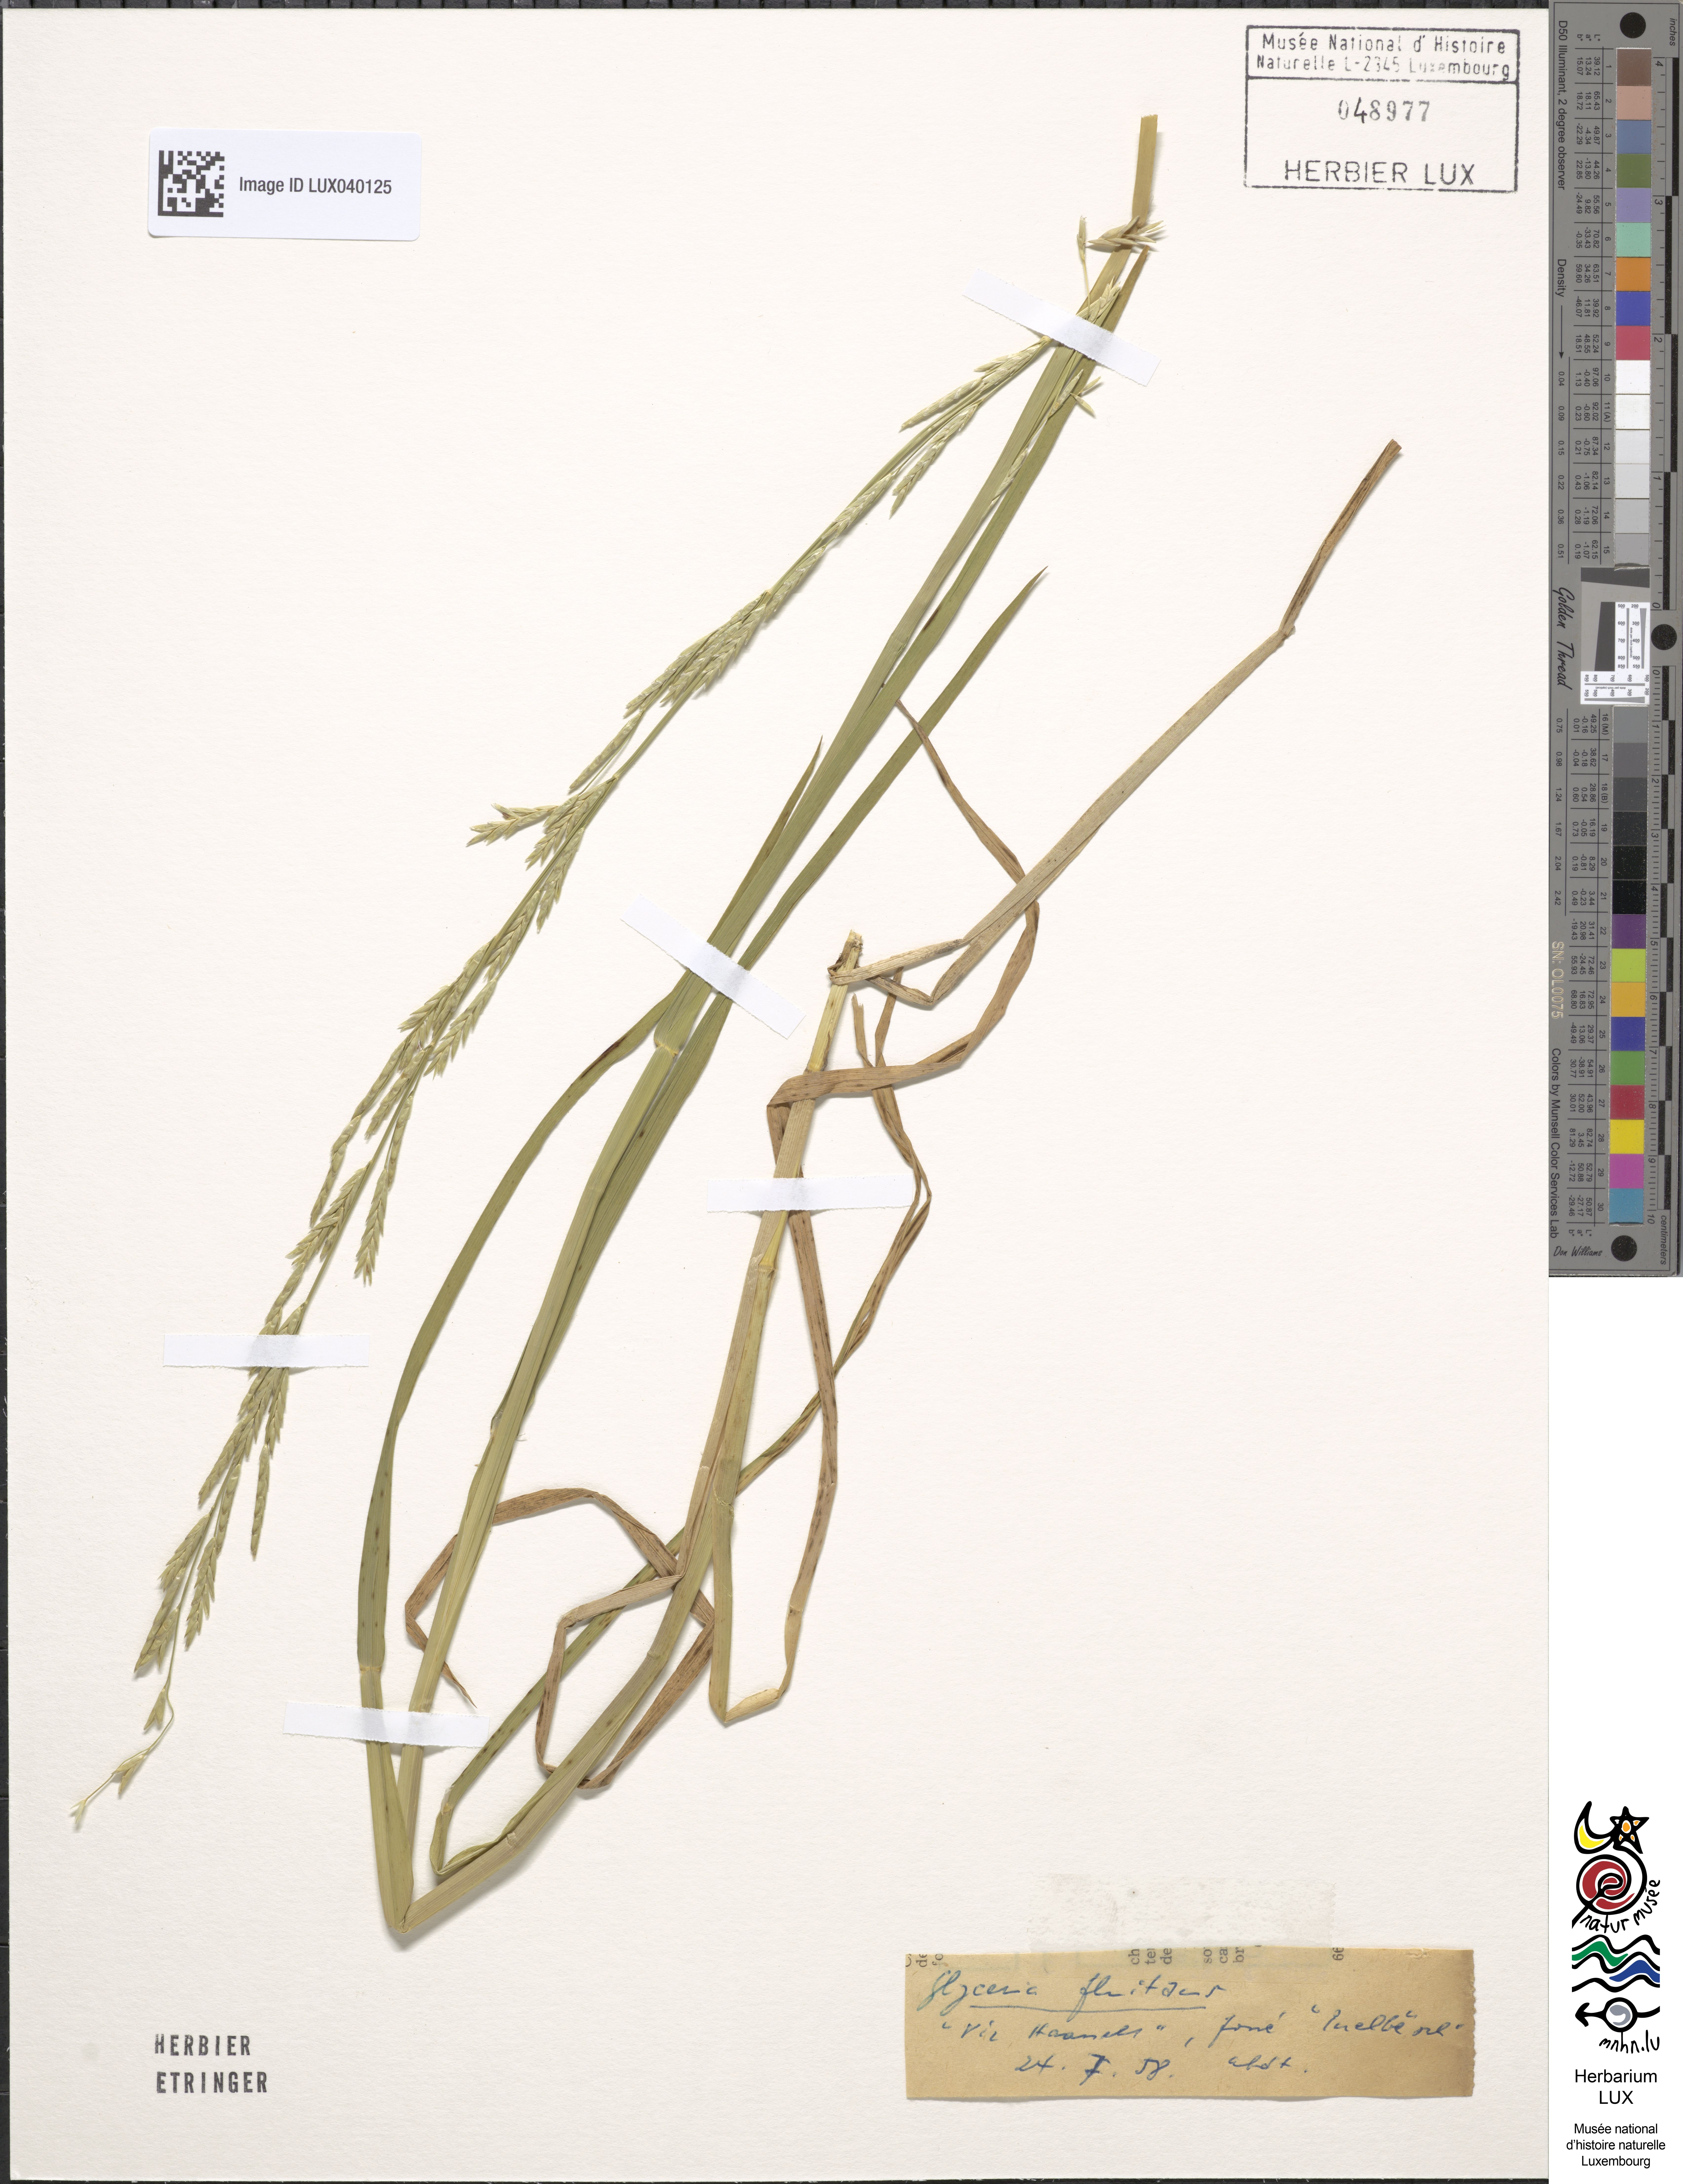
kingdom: Plantae
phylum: Tracheophyta
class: Liliopsida
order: Poales
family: Poaceae
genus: Glyceria
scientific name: Glyceria fluitans
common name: Floating sweet-grass
